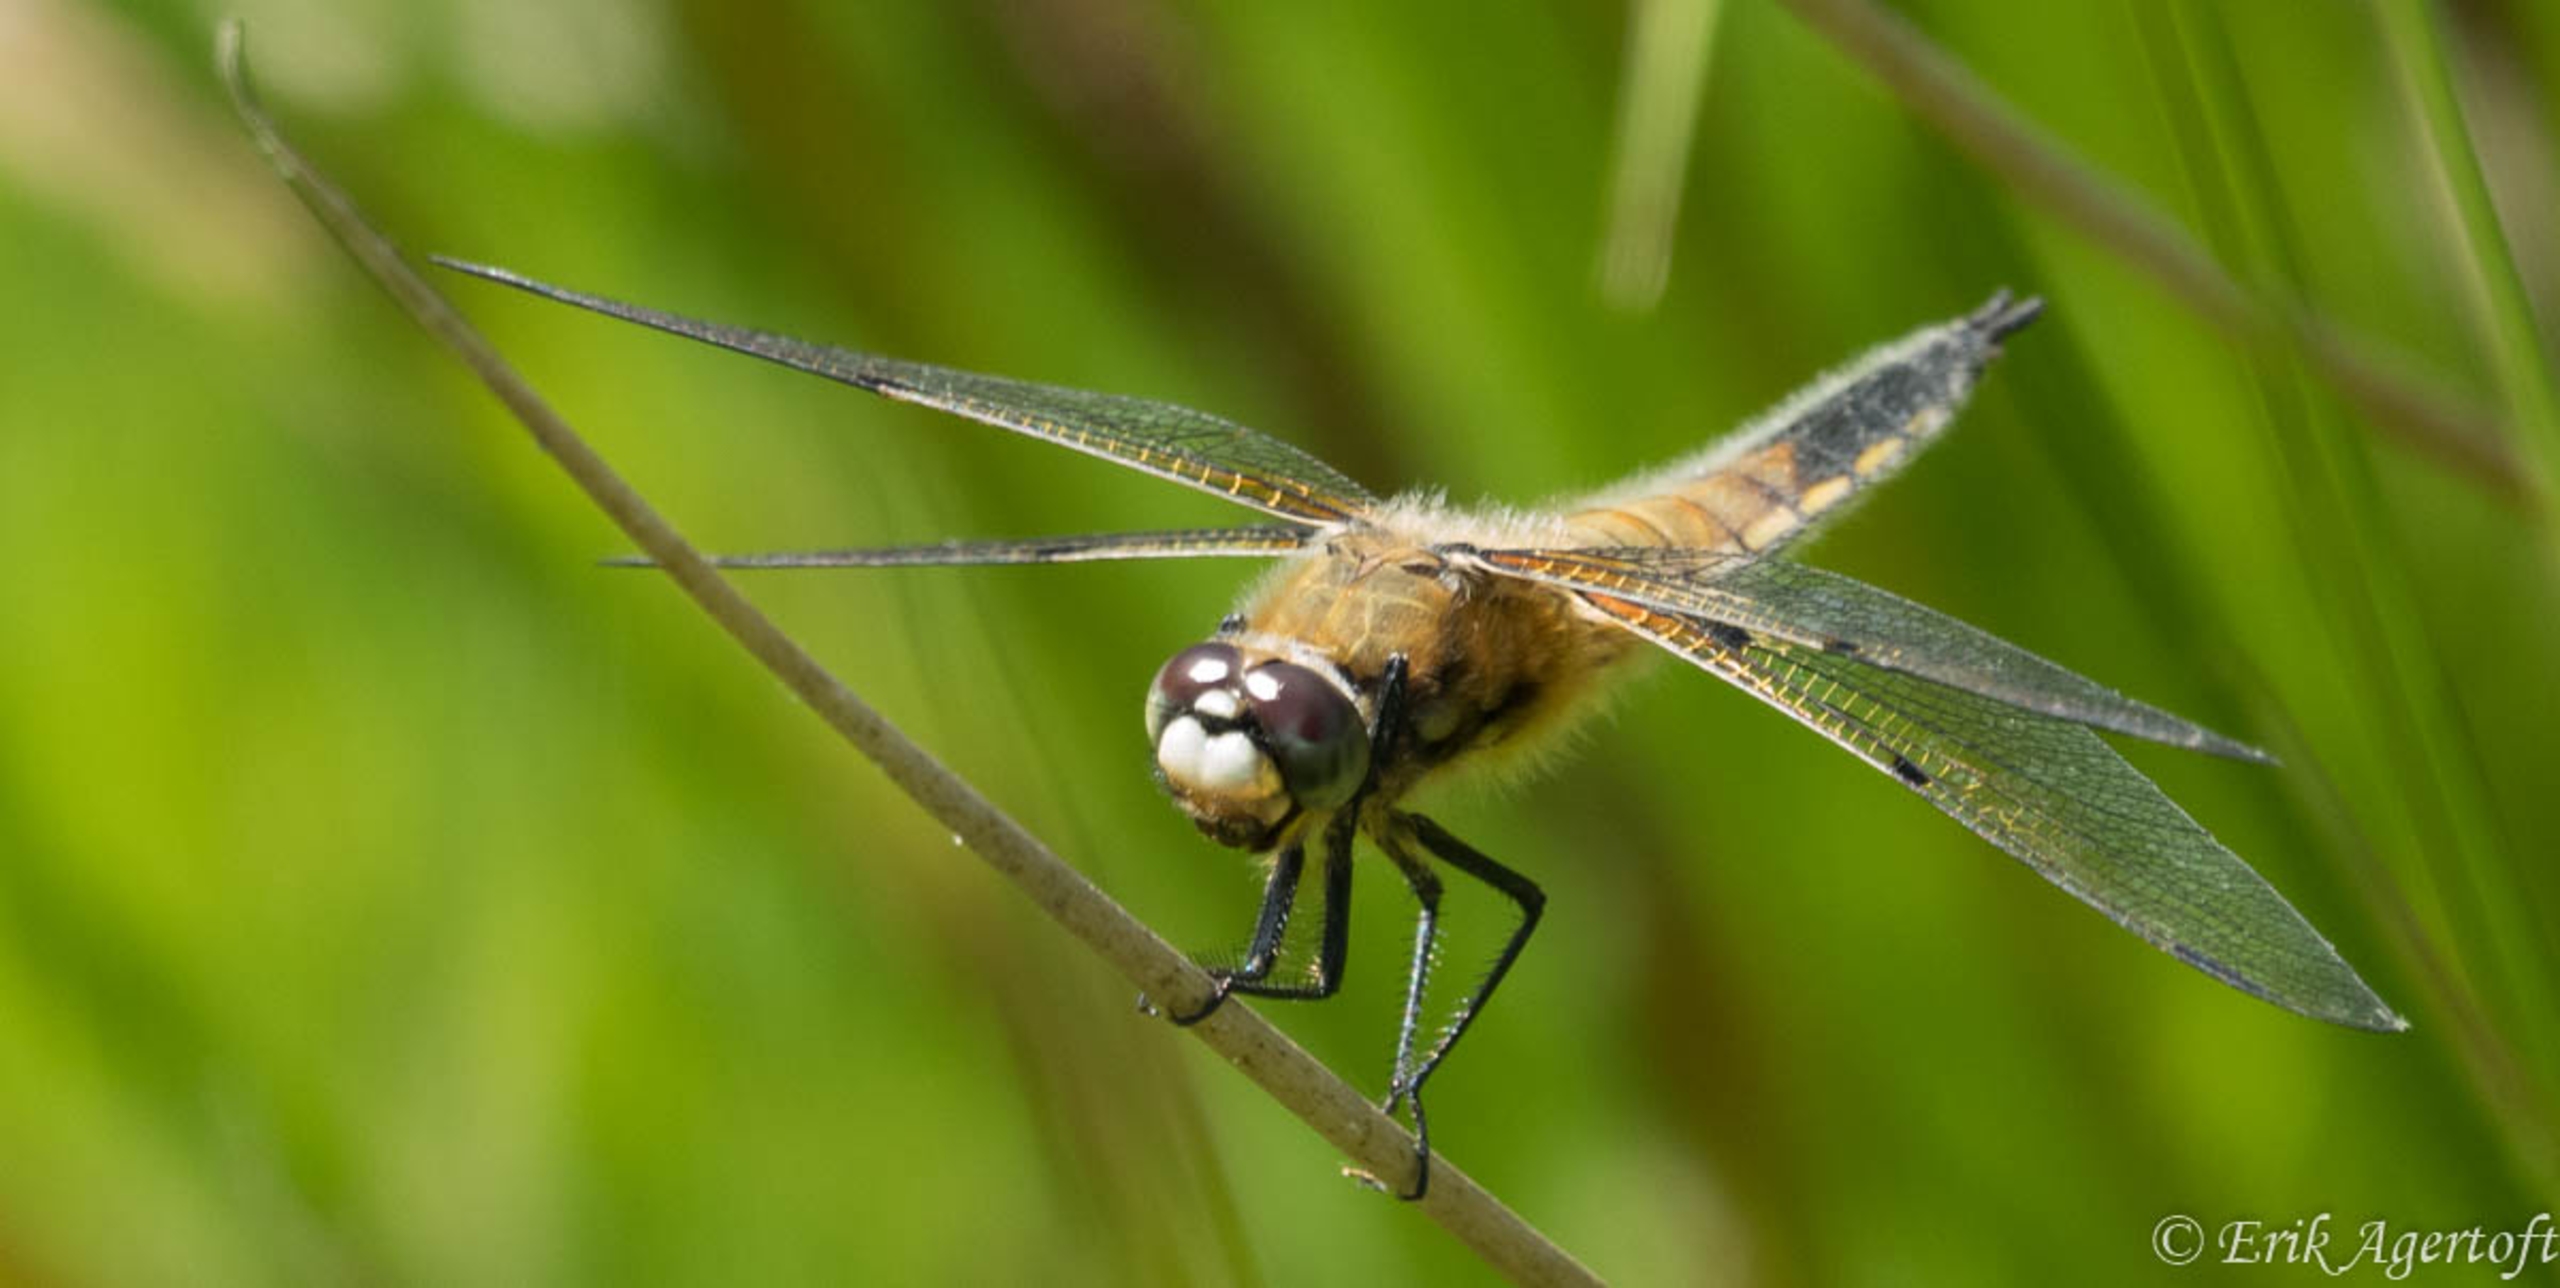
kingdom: Animalia
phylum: Arthropoda
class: Insecta
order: Odonata
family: Libellulidae
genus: Libellula
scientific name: Libellula quadrimaculata
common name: Fireplettet libel
